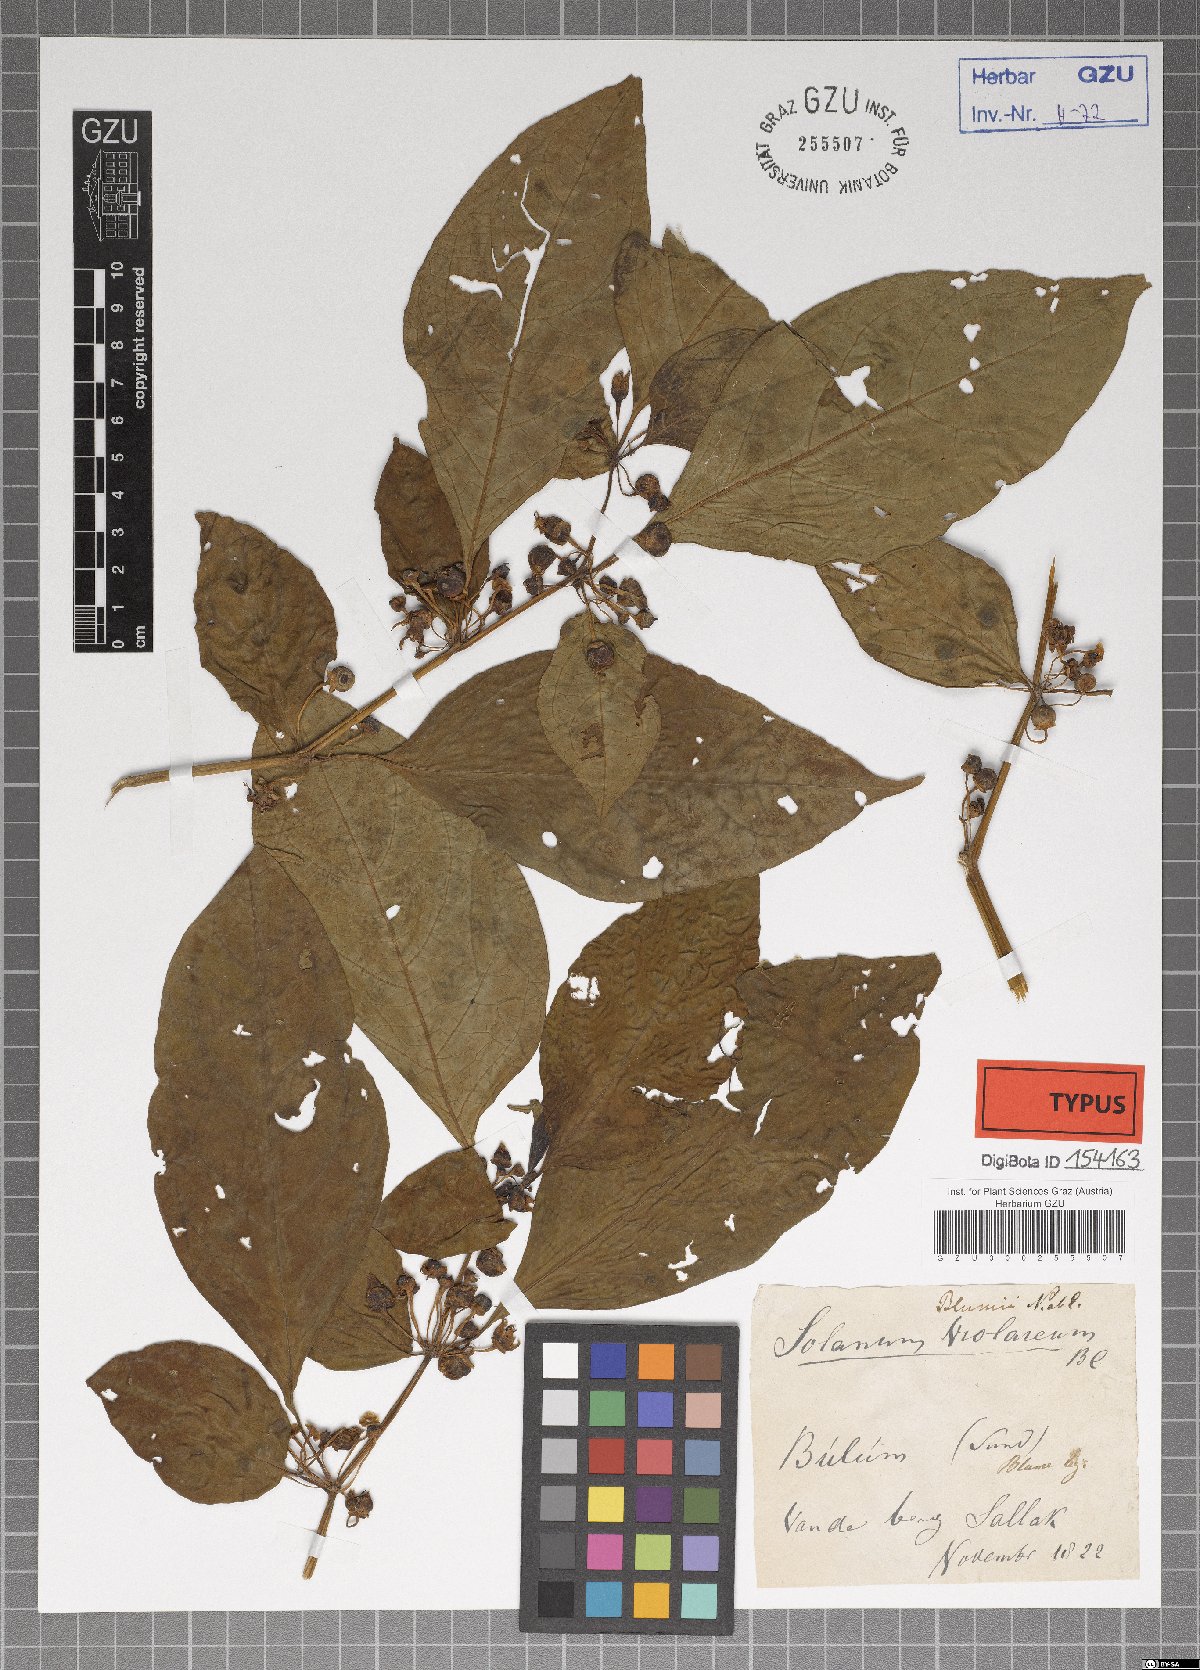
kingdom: Plantae
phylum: Tracheophyta
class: Magnoliopsida
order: Solanales
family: Solanaceae
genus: Solanum
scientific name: Solanum violaceum
